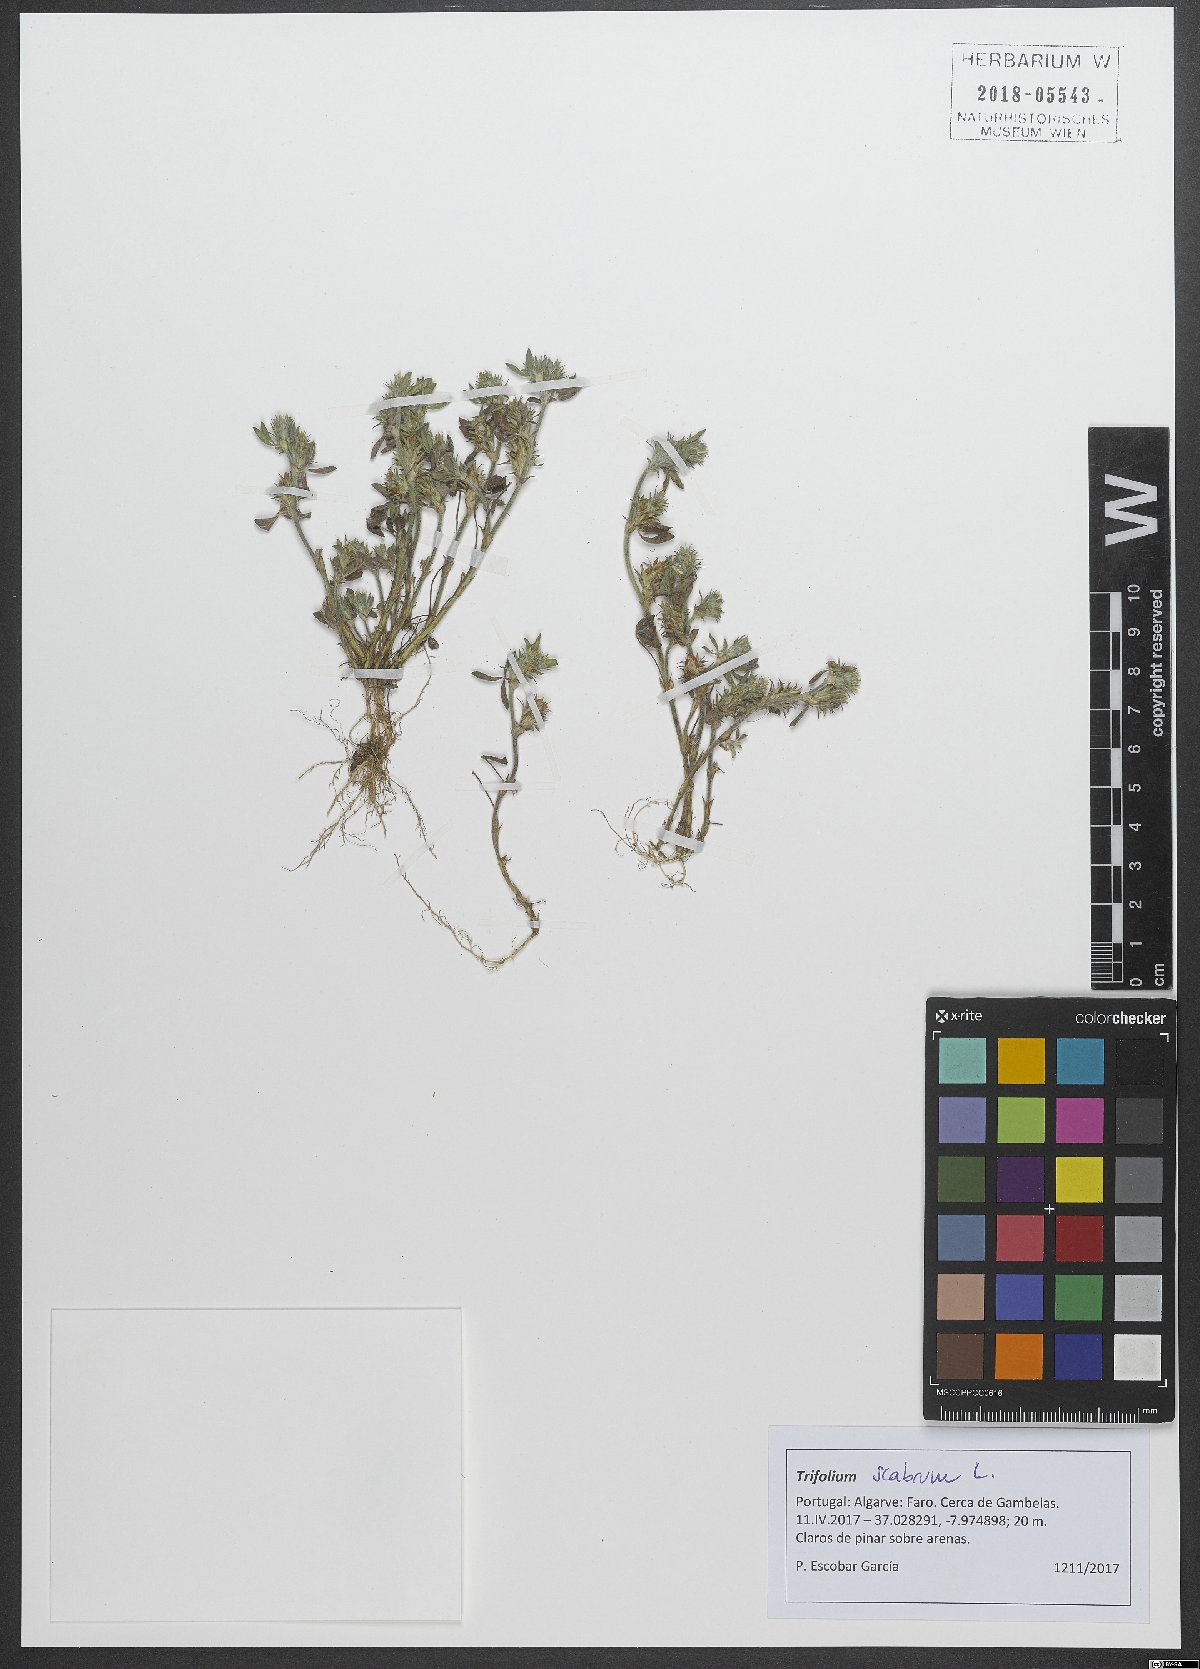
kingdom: Plantae
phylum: Tracheophyta
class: Magnoliopsida
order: Fabales
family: Fabaceae
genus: Trifolium
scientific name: Trifolium scabrum
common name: Rough clover
